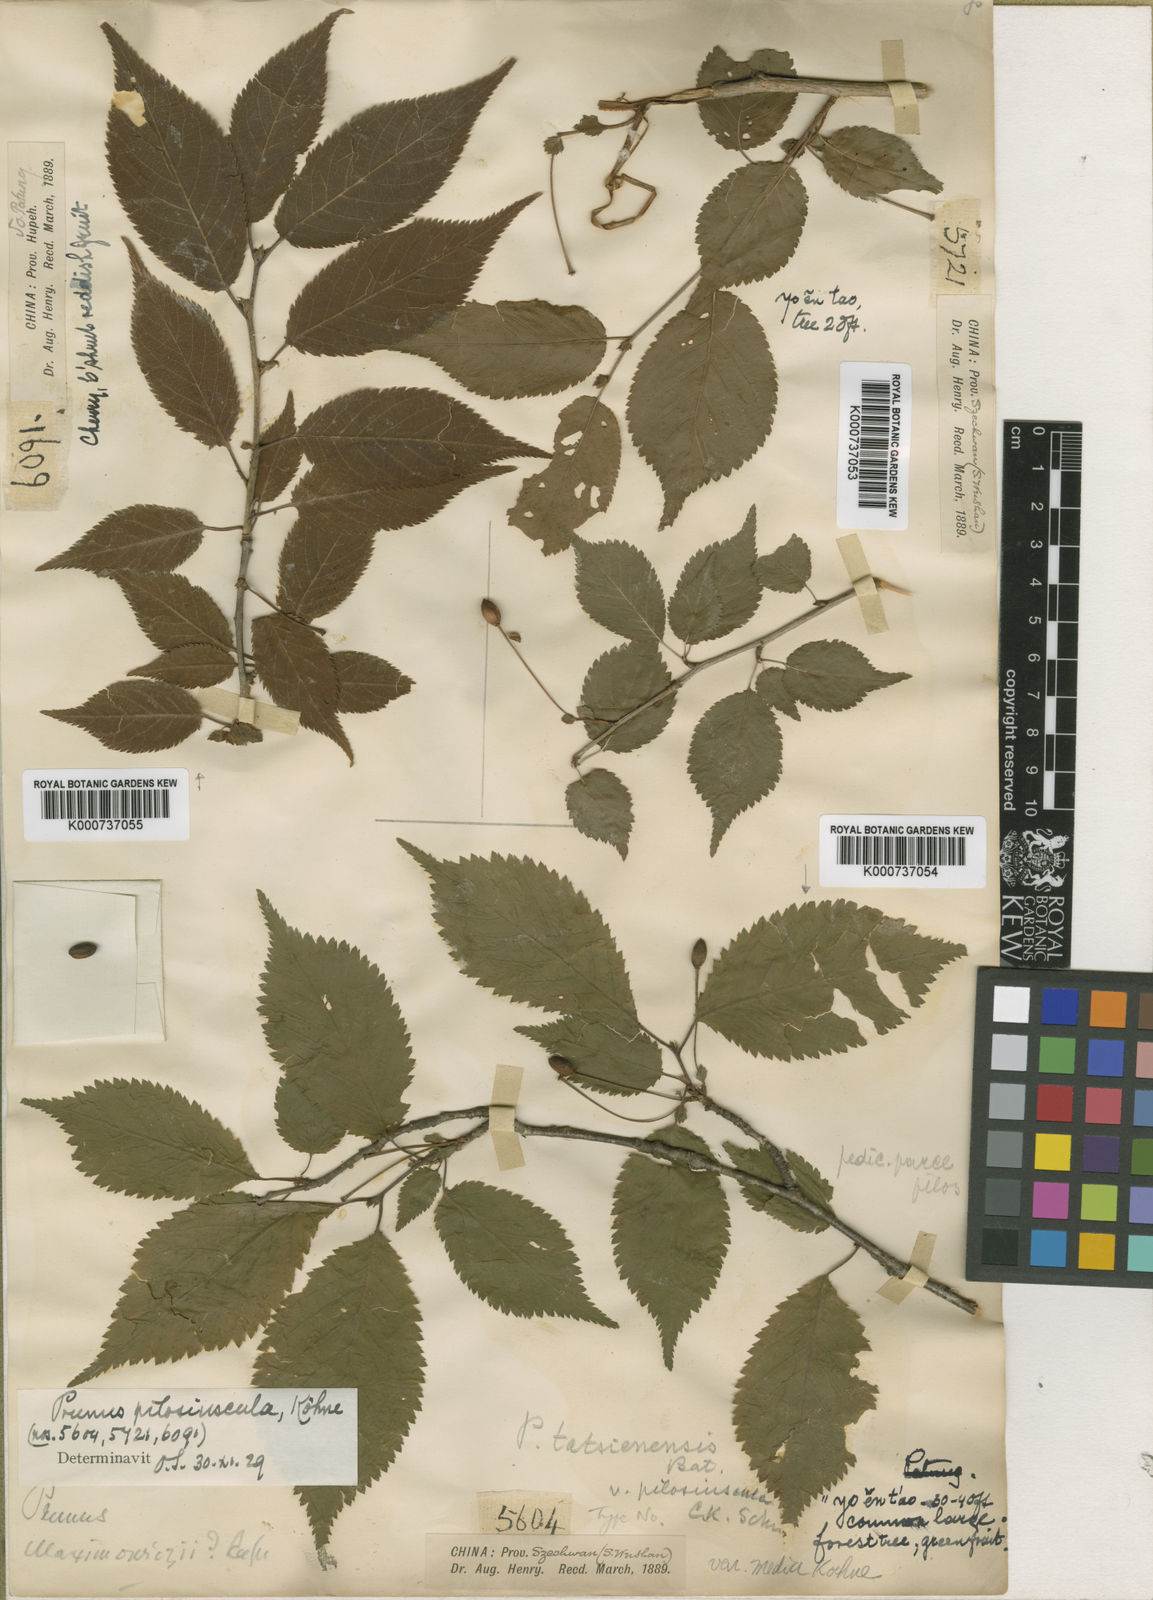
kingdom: Plantae
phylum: Tracheophyta
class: Magnoliopsida
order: Rosales
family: Rosaceae
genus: Prunus
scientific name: Prunus
